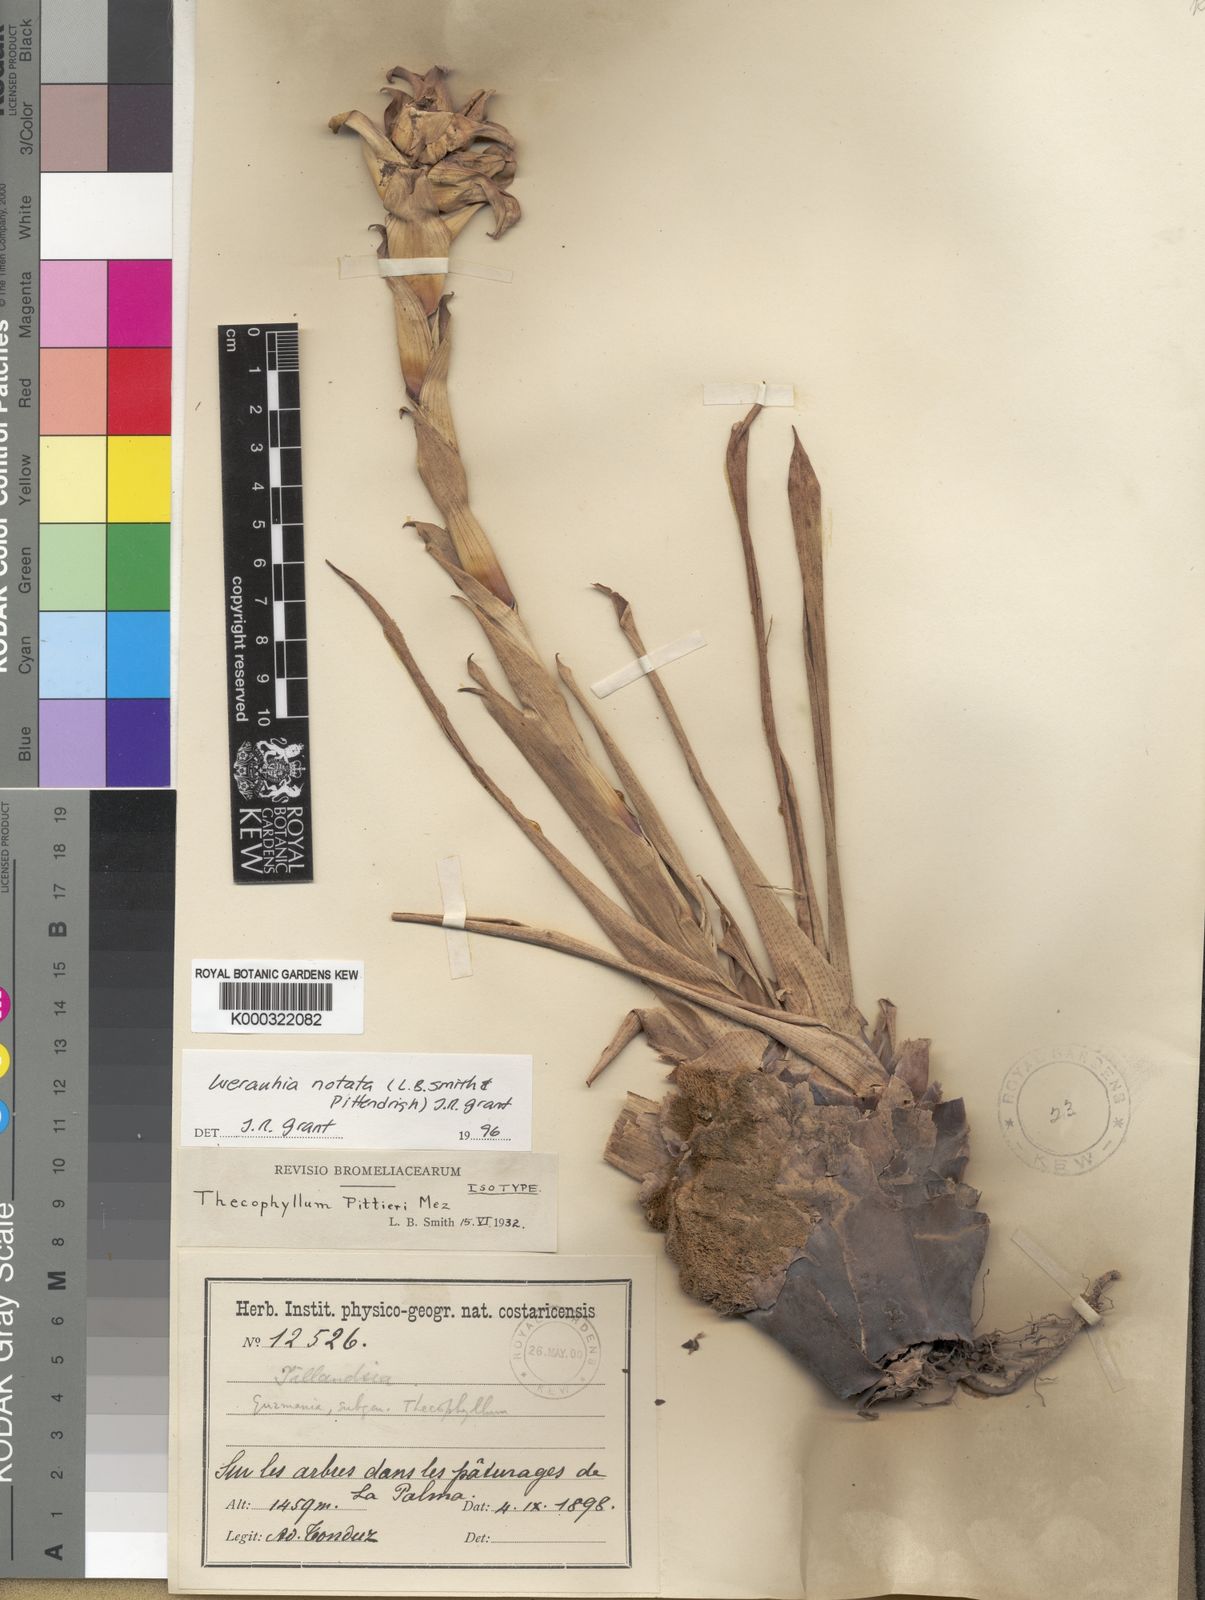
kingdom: Plantae
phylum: Tracheophyta
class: Liliopsida
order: Poales
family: Bromeliaceae
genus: Werauhia
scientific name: Werauhia notata
